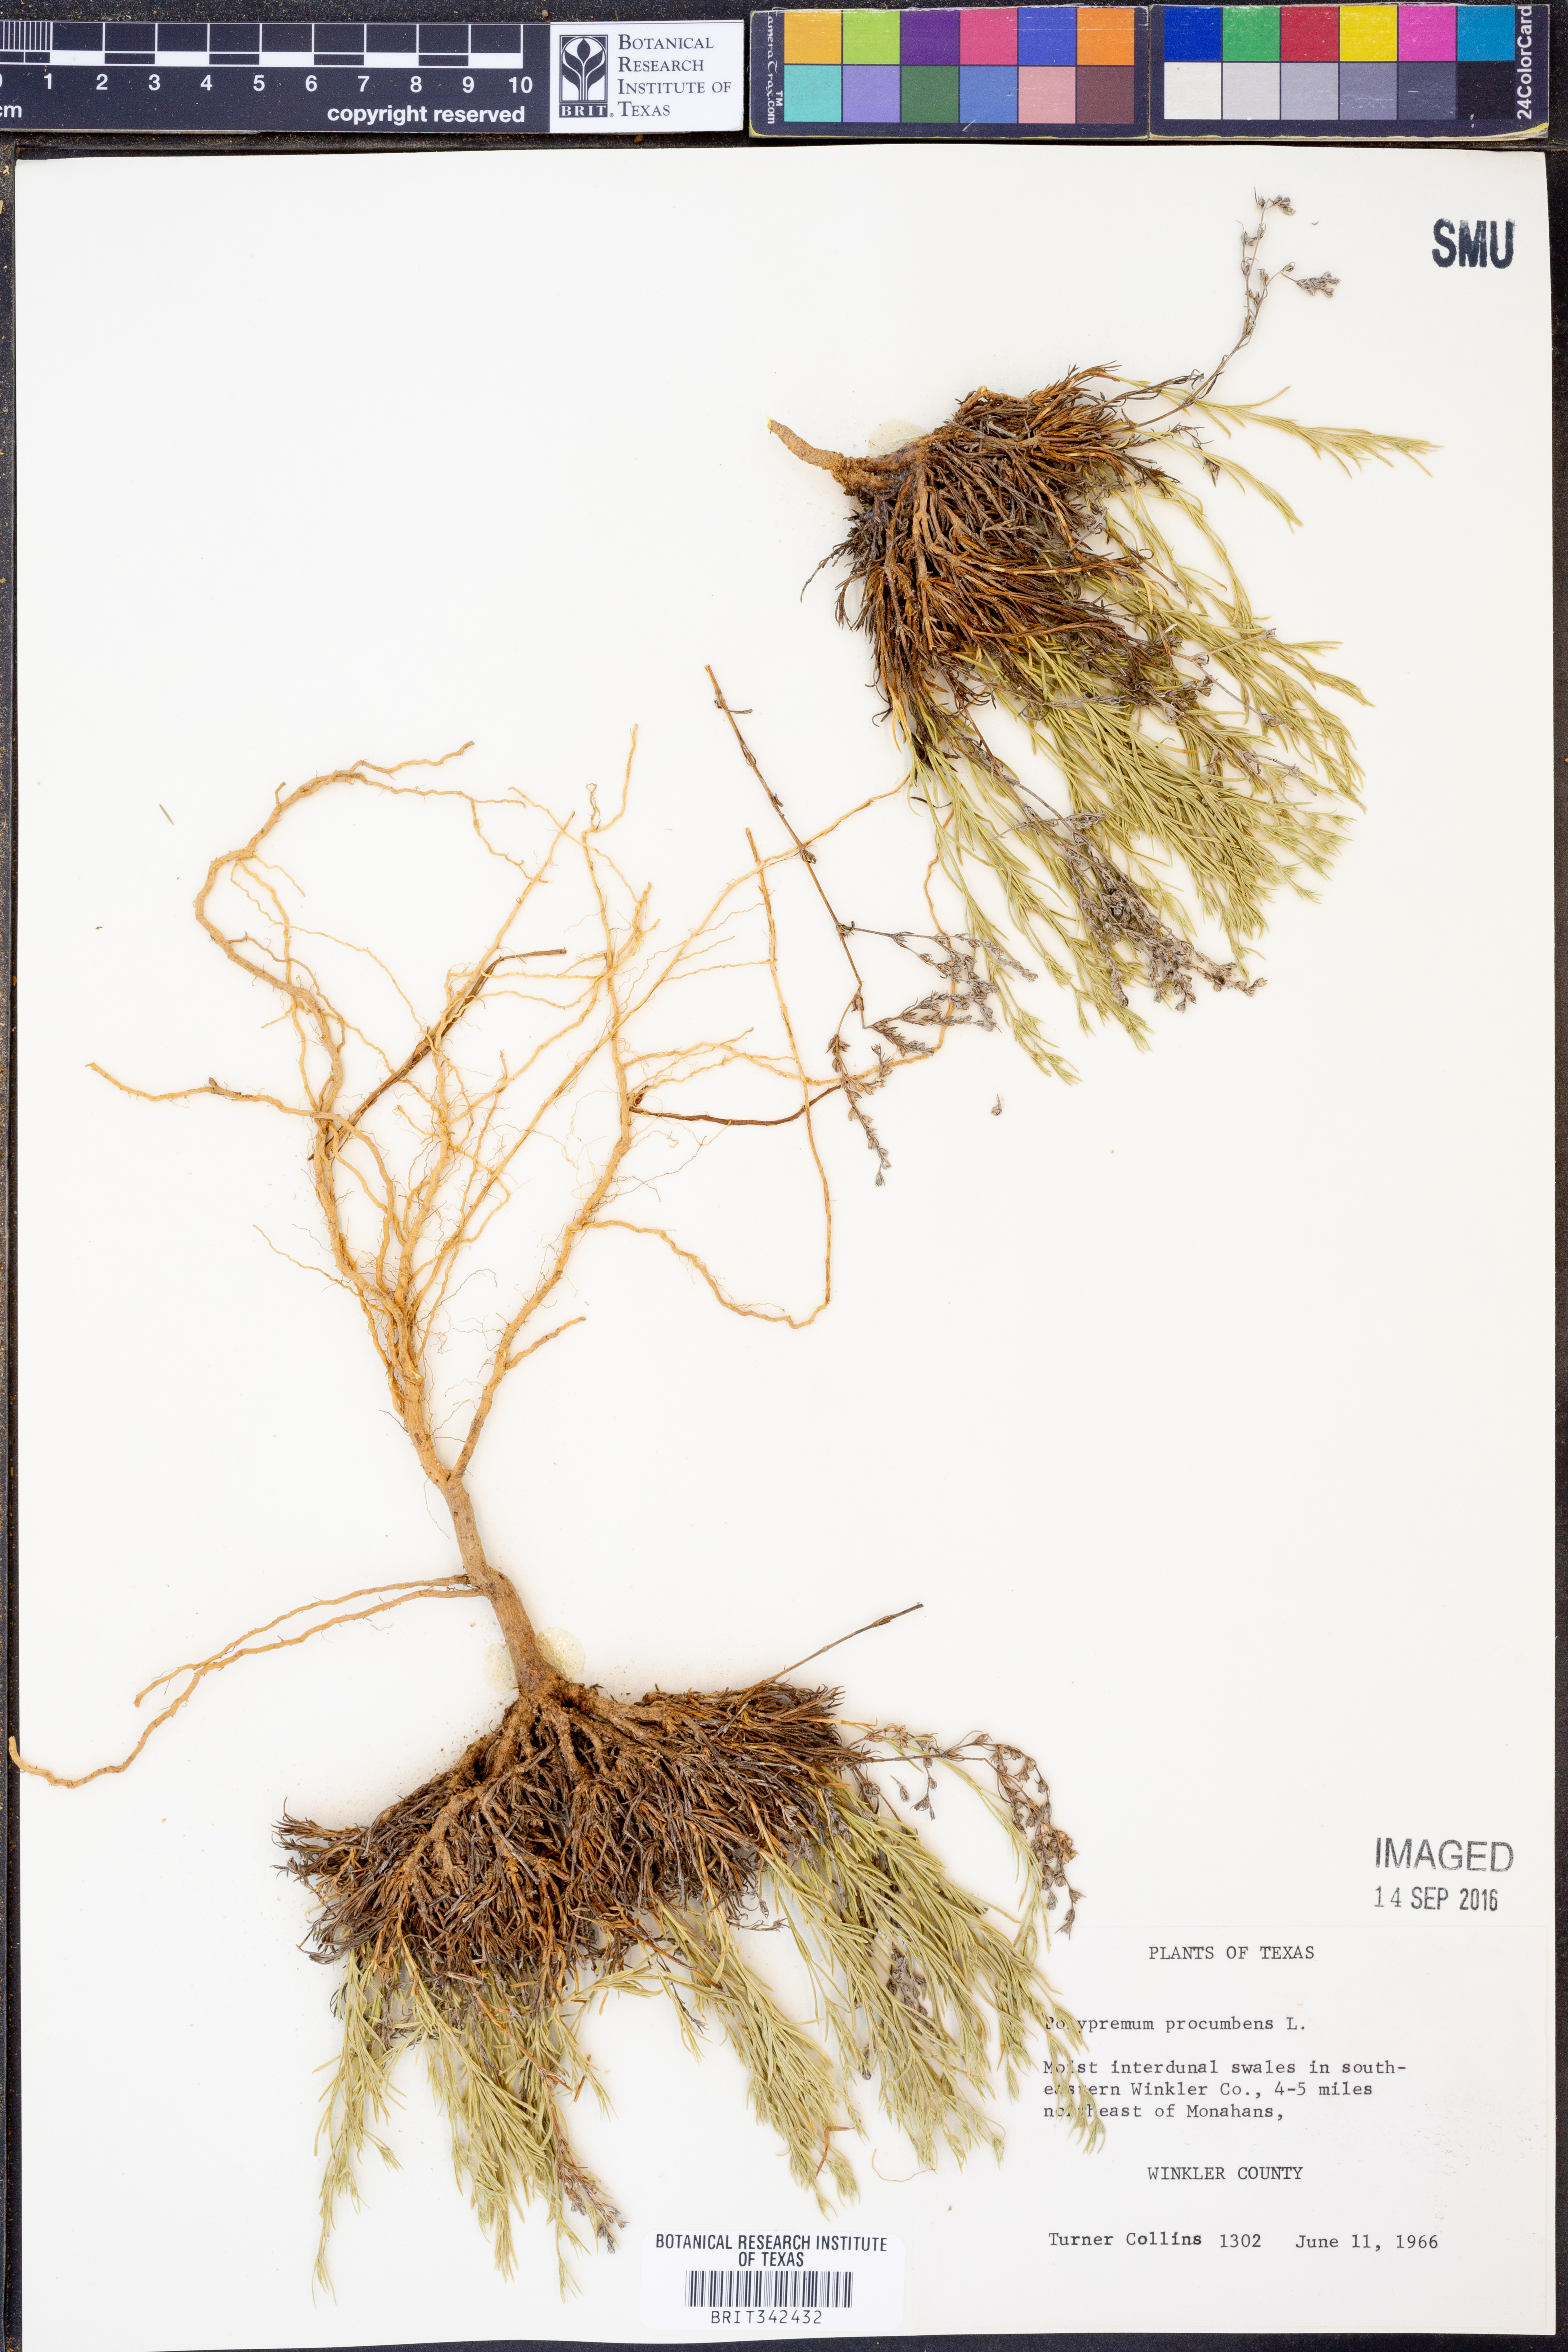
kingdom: Plantae
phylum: Tracheophyta
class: Magnoliopsida
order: Lamiales
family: Tetrachondraceae
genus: Polypremum
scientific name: Polypremum procumbens
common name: Juniper-leaf
